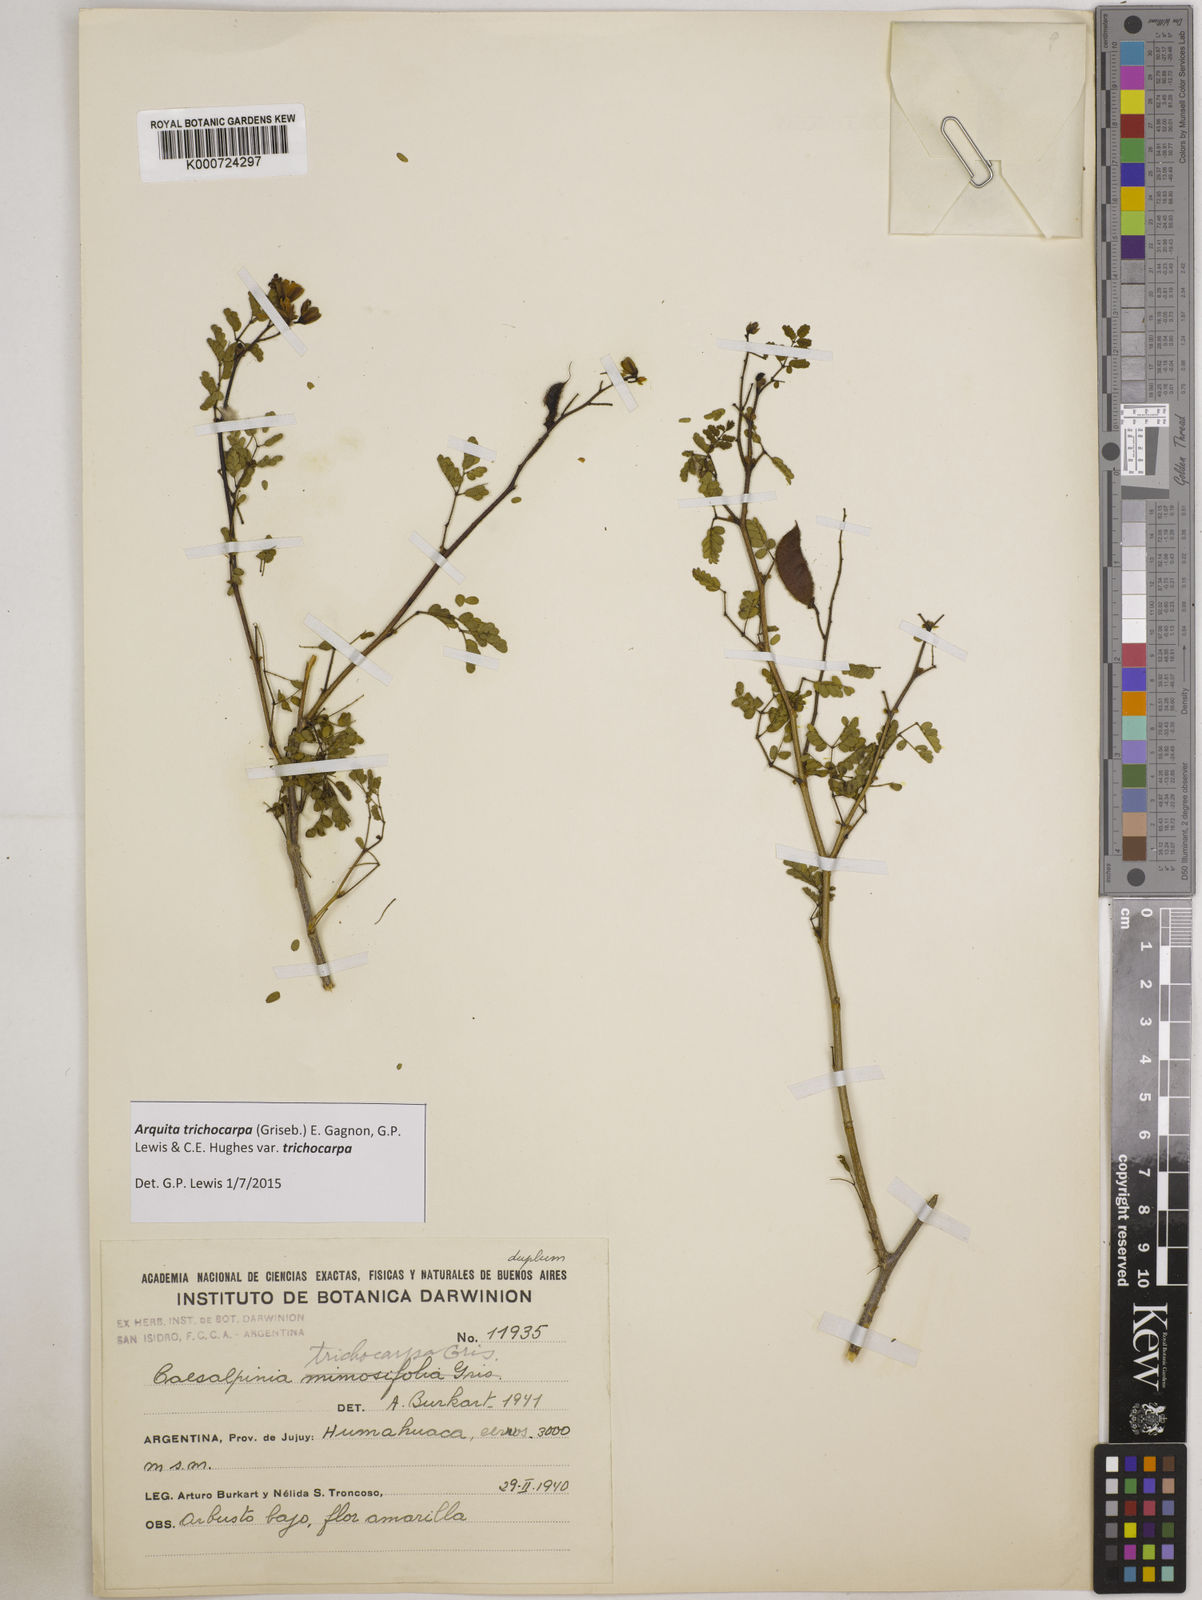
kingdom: Plantae
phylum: Tracheophyta
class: Magnoliopsida
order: Fabales
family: Fabaceae
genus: Arquita
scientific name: Arquita trichocarpa
